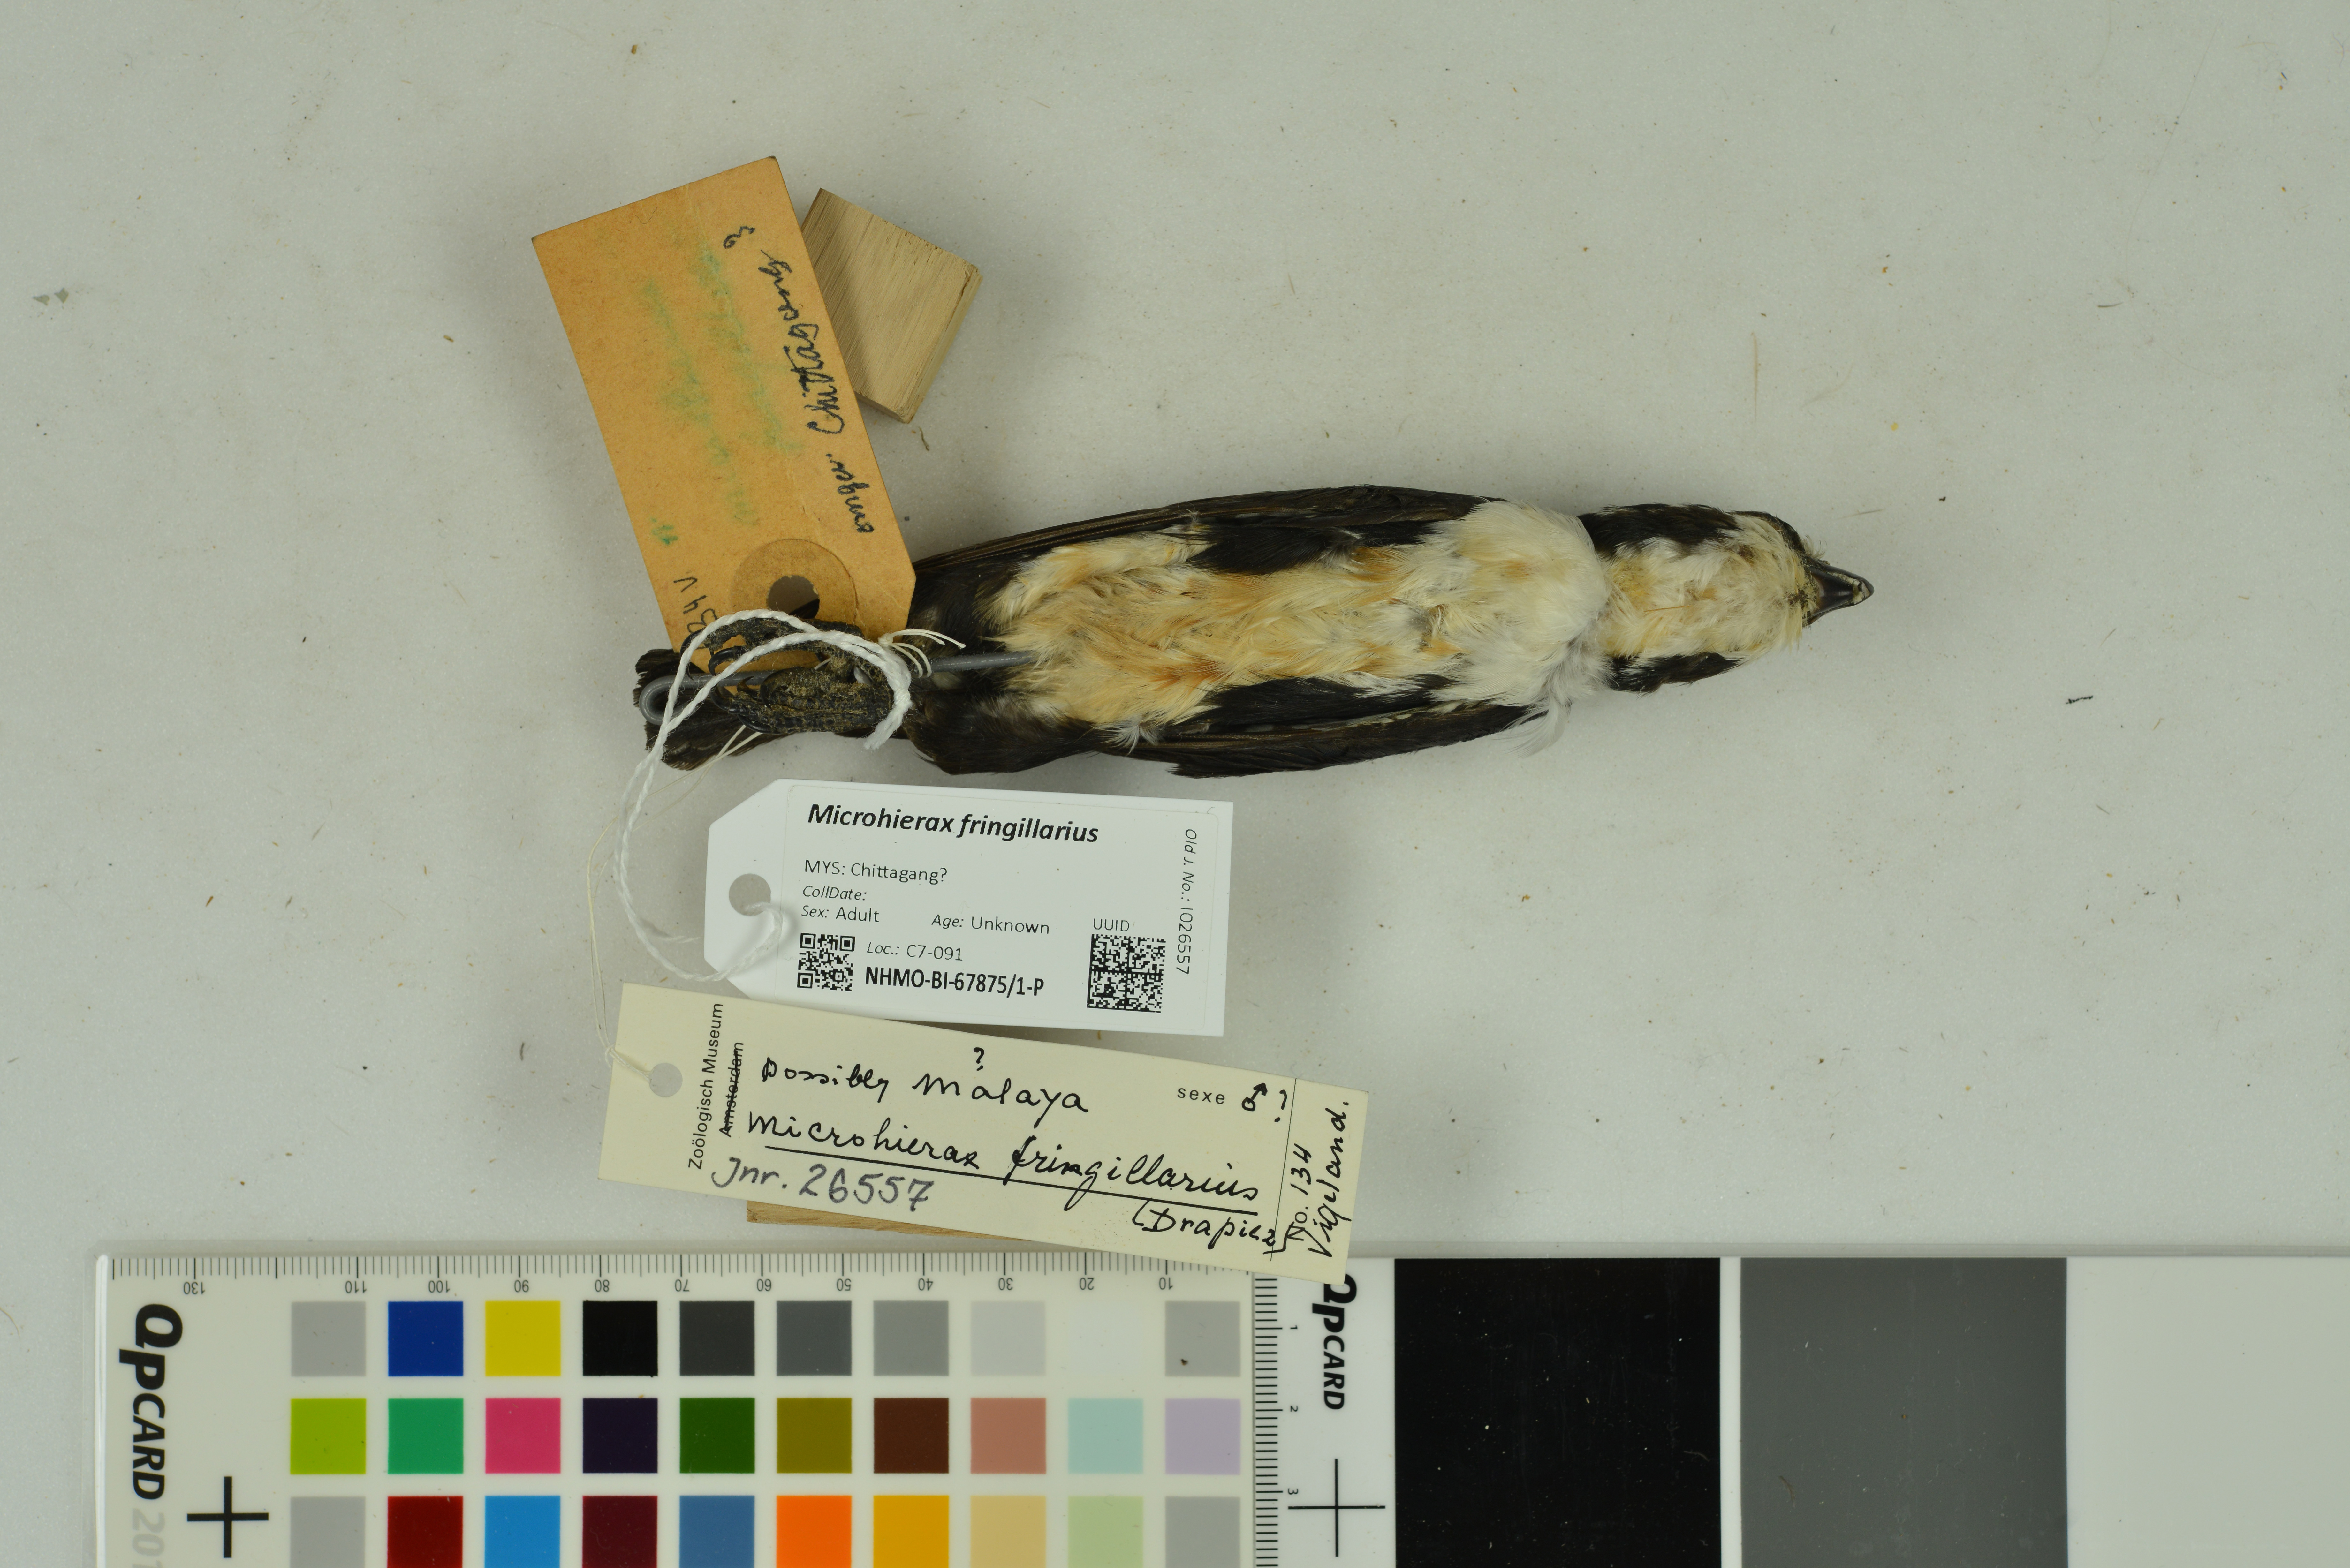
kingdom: Animalia
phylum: Chordata
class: Aves
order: Falconiformes
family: Falconidae
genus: Microhierax
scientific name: Microhierax fringillarius
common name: Black-thighed falconet
